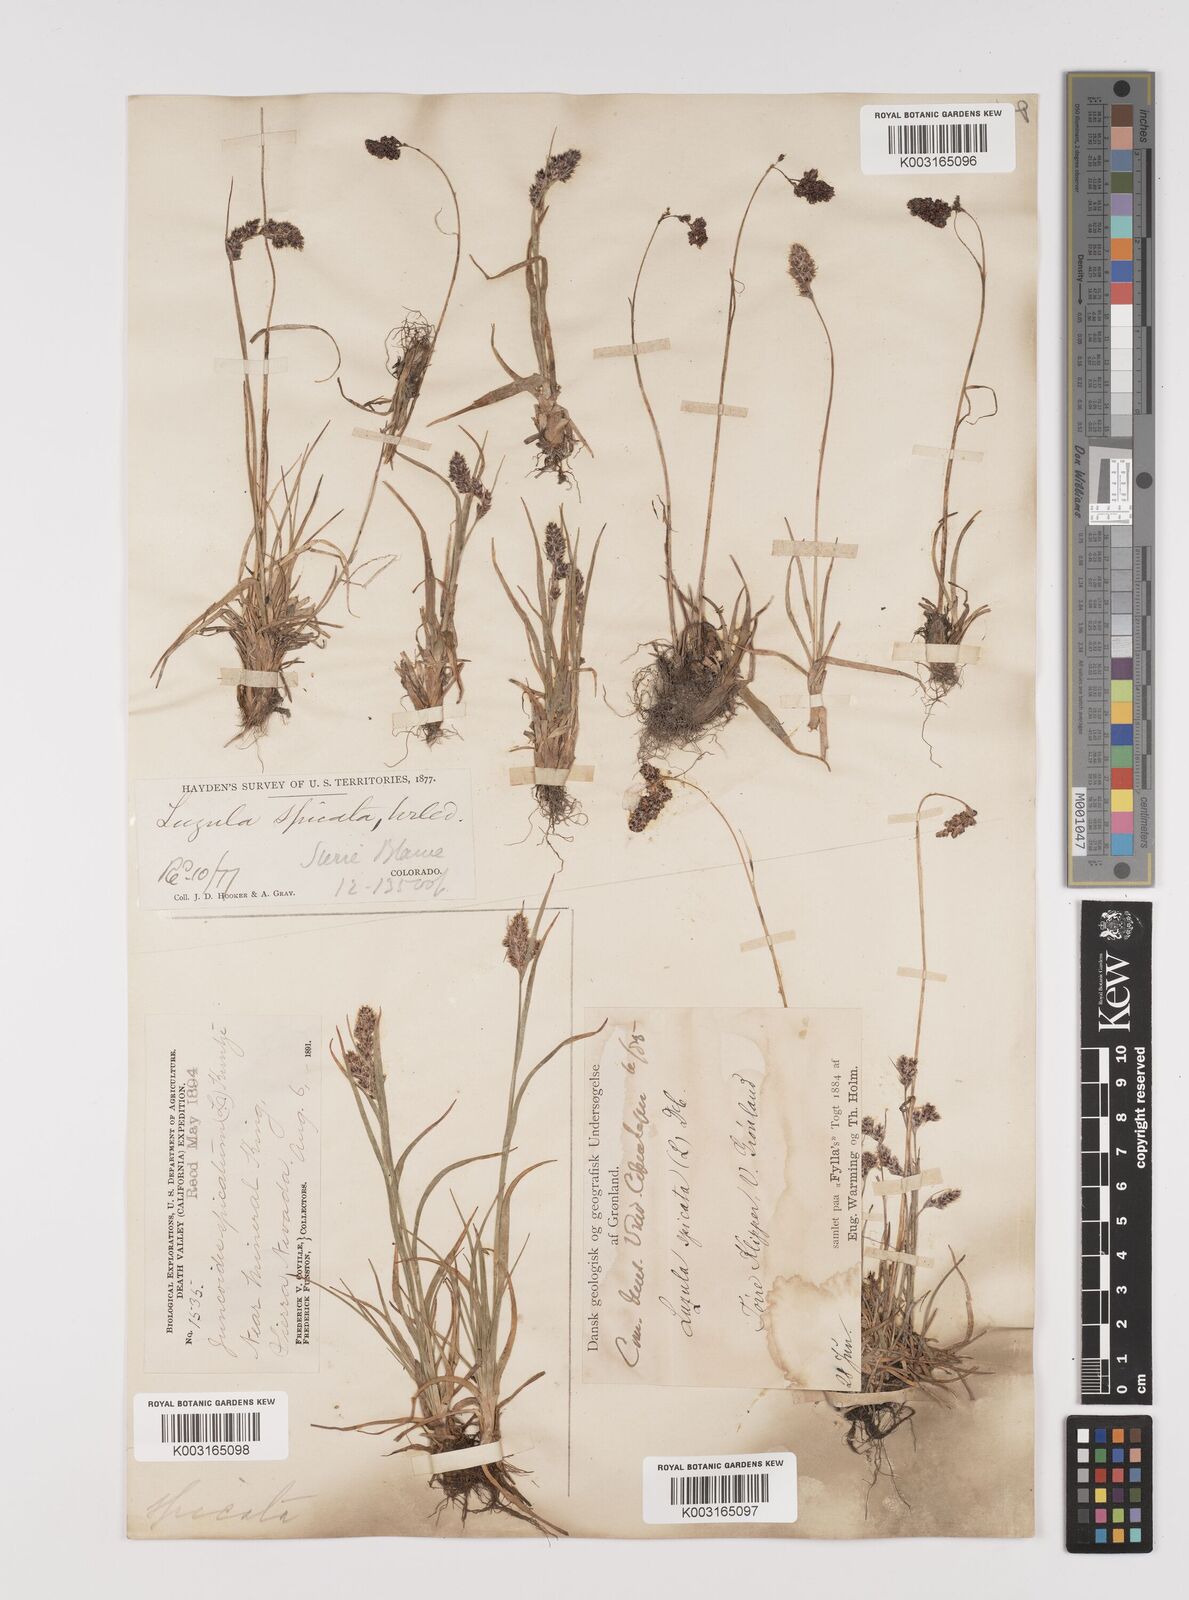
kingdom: Plantae
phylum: Tracheophyta
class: Liliopsida
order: Poales
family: Juncaceae
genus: Luzula
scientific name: Luzula spicata
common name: Spiked wood-rush
